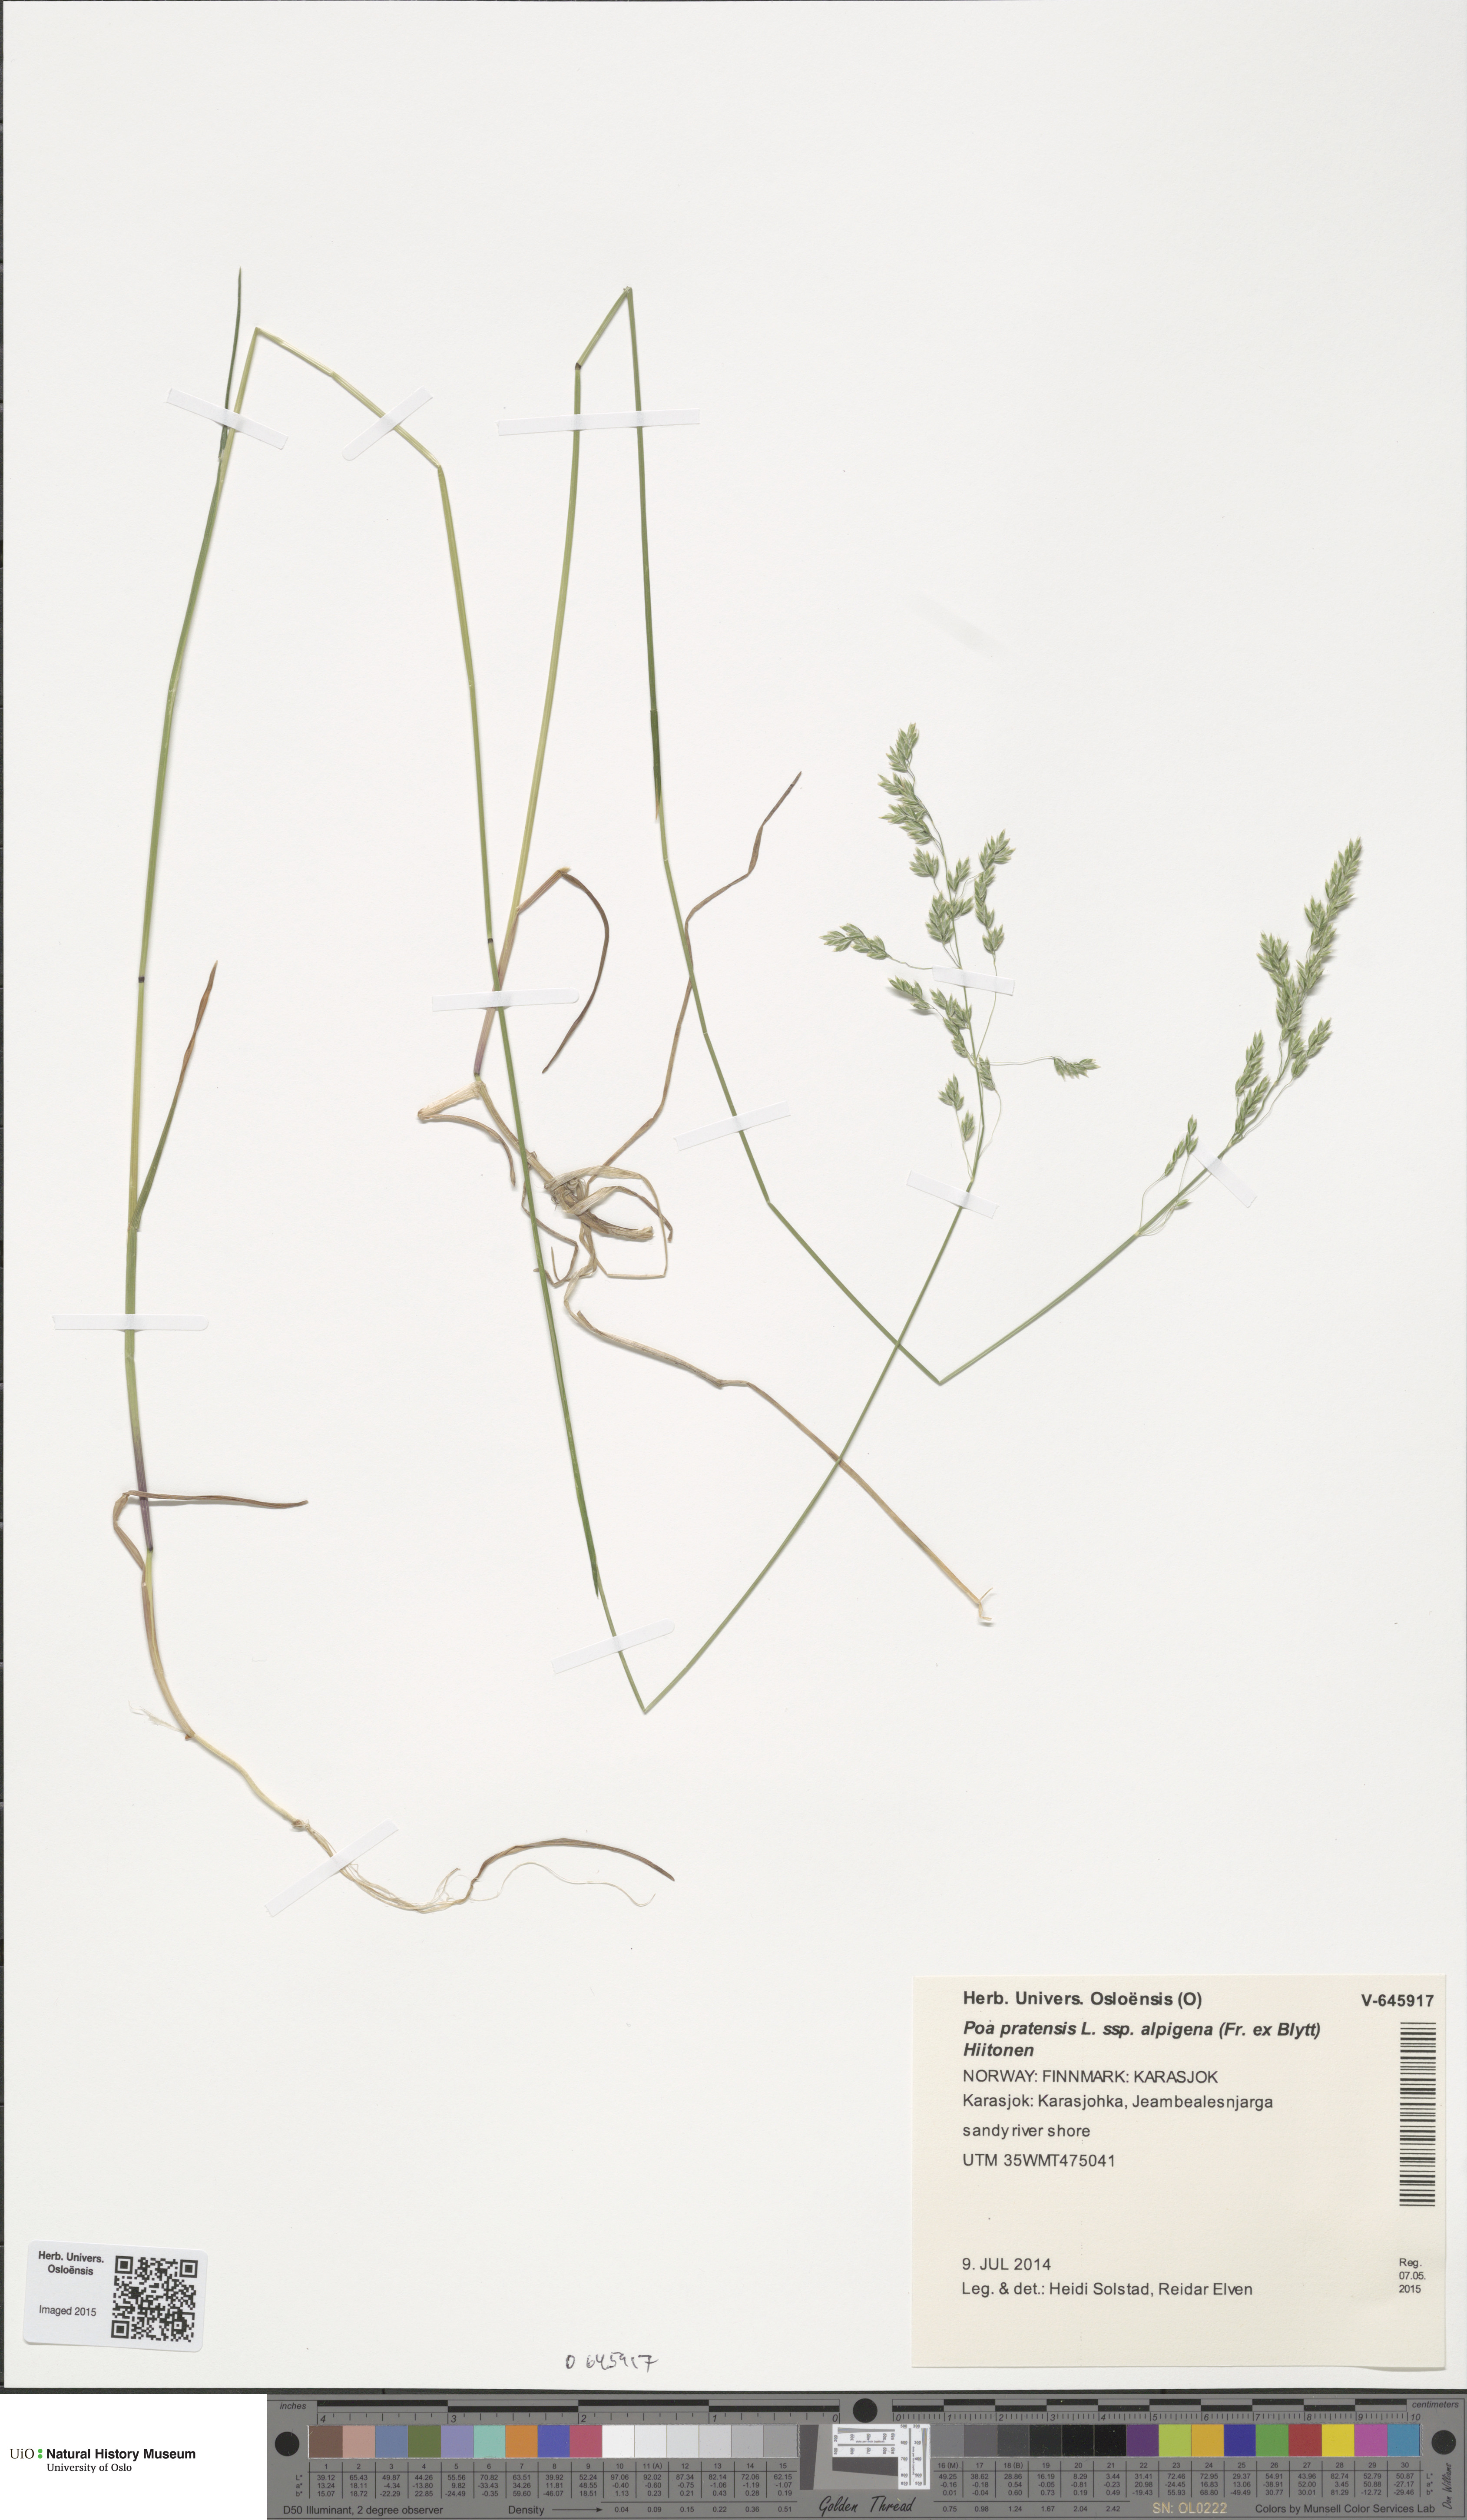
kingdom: Plantae
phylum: Tracheophyta
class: Liliopsida
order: Poales
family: Poaceae
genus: Poa
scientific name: Poa alpigena
